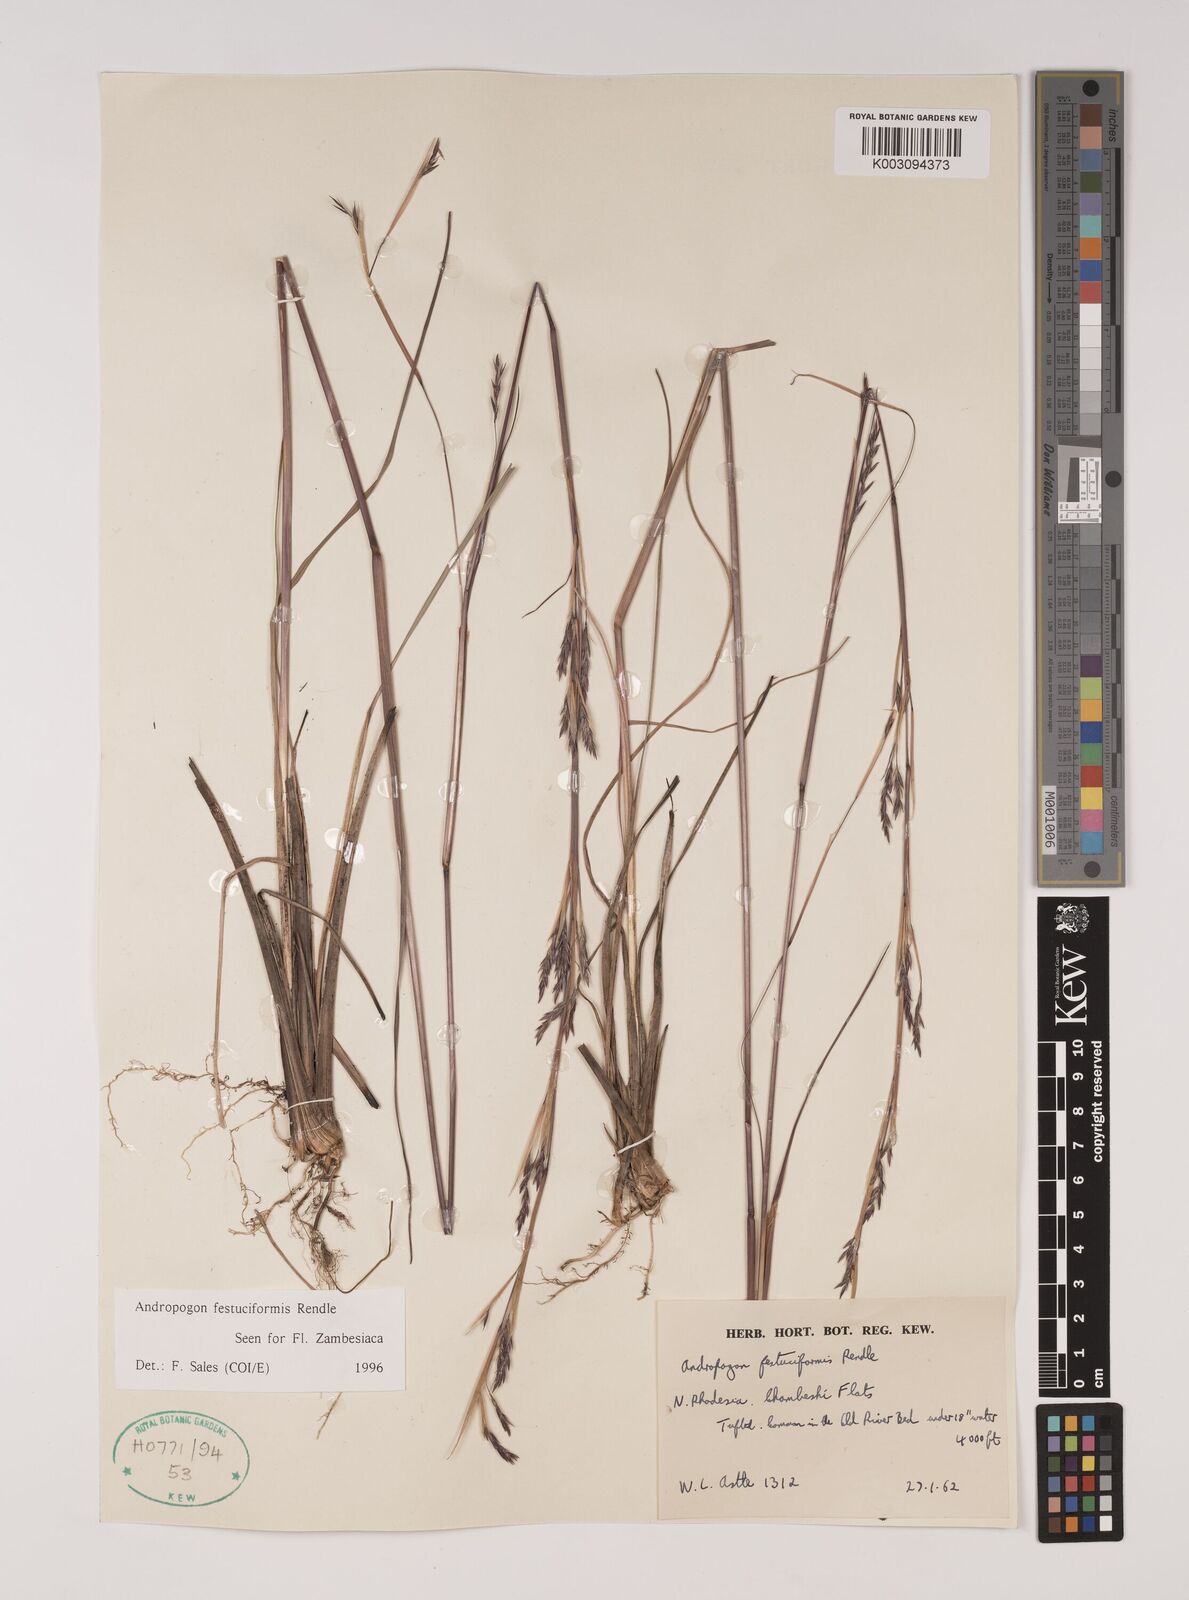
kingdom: Plantae
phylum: Tracheophyta
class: Liliopsida
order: Poales
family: Poaceae
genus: Andropogon
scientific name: Andropogon festuciformis
